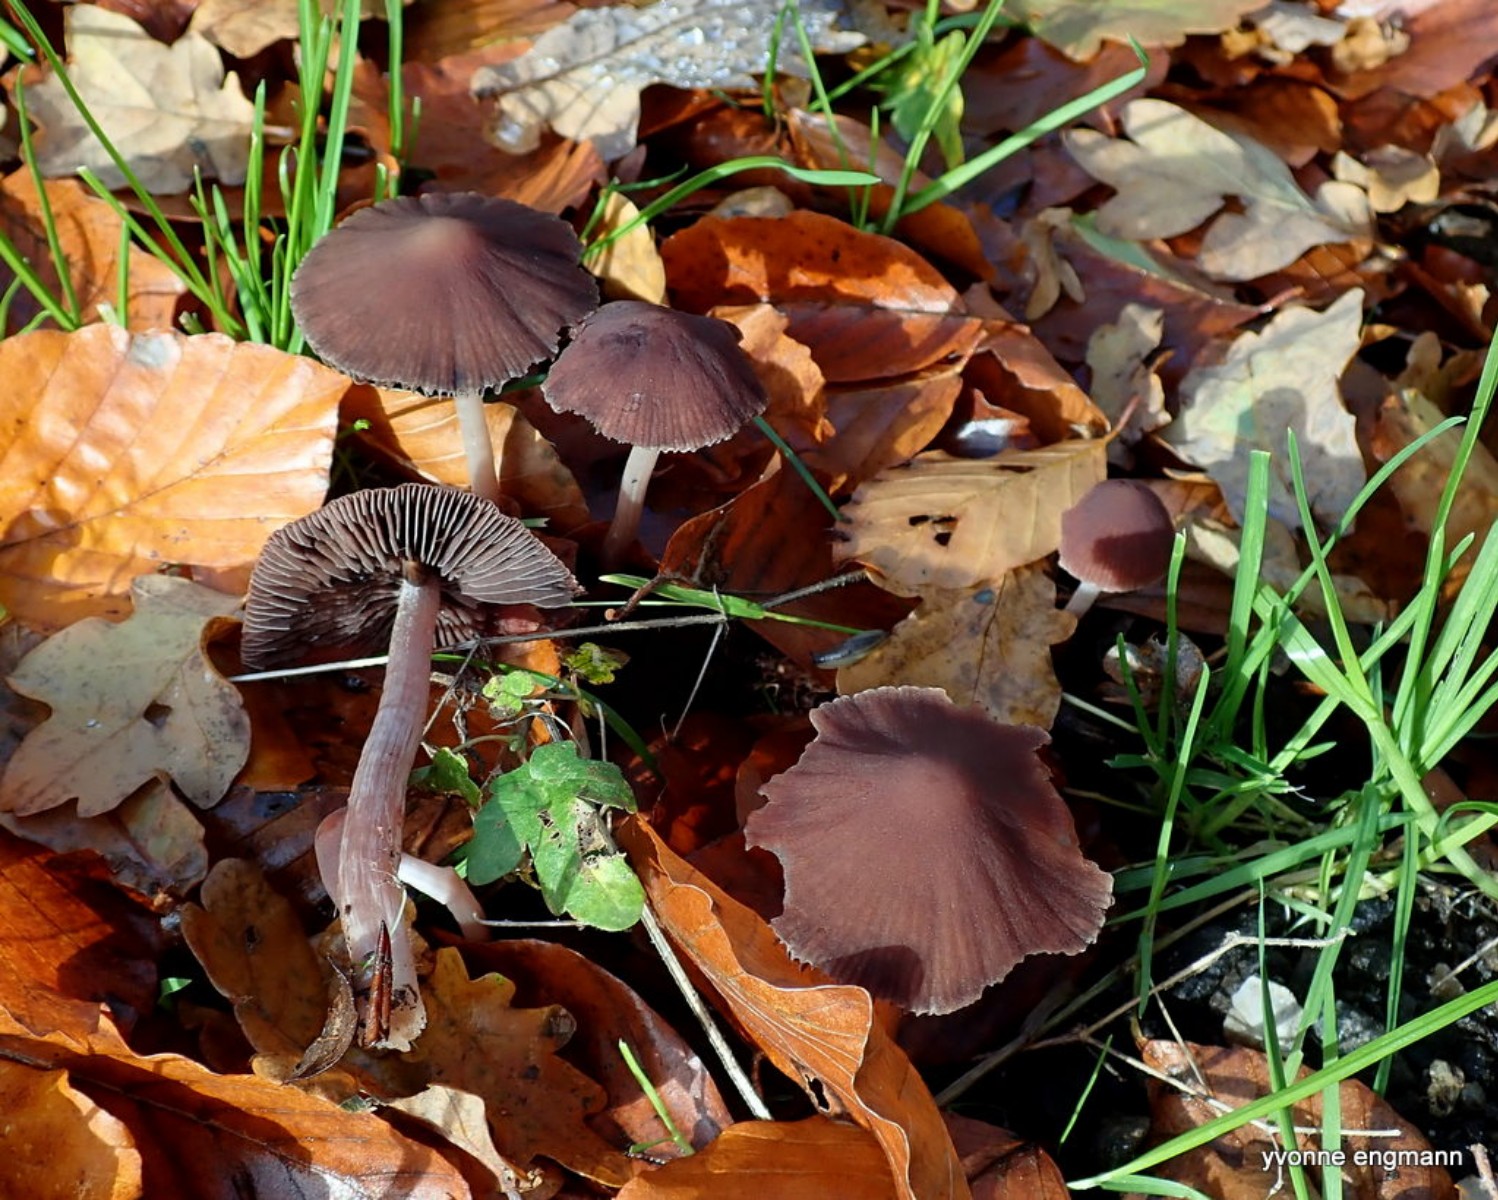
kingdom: Fungi
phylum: Basidiomycota
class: Agaricomycetes
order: Agaricales
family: Psathyrellaceae
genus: Psathyrella
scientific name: Psathyrella bipellis
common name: vinrød mørkhat
